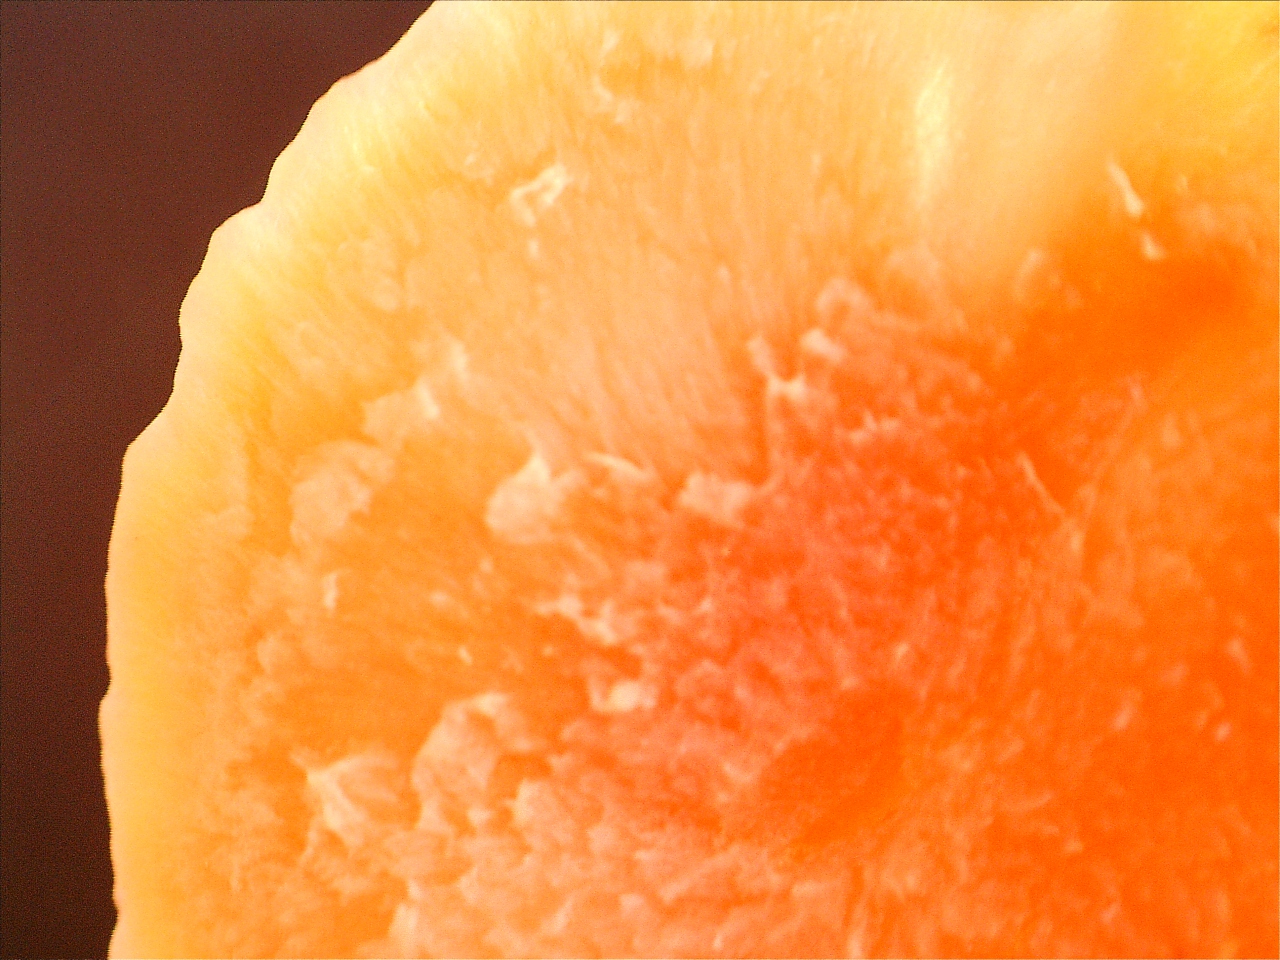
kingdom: Fungi
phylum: Basidiomycota
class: Agaricomycetes
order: Agaricales
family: Hygrophoraceae
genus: Hygrocybe
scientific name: Hygrocybe reidii
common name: honning-vokshat
